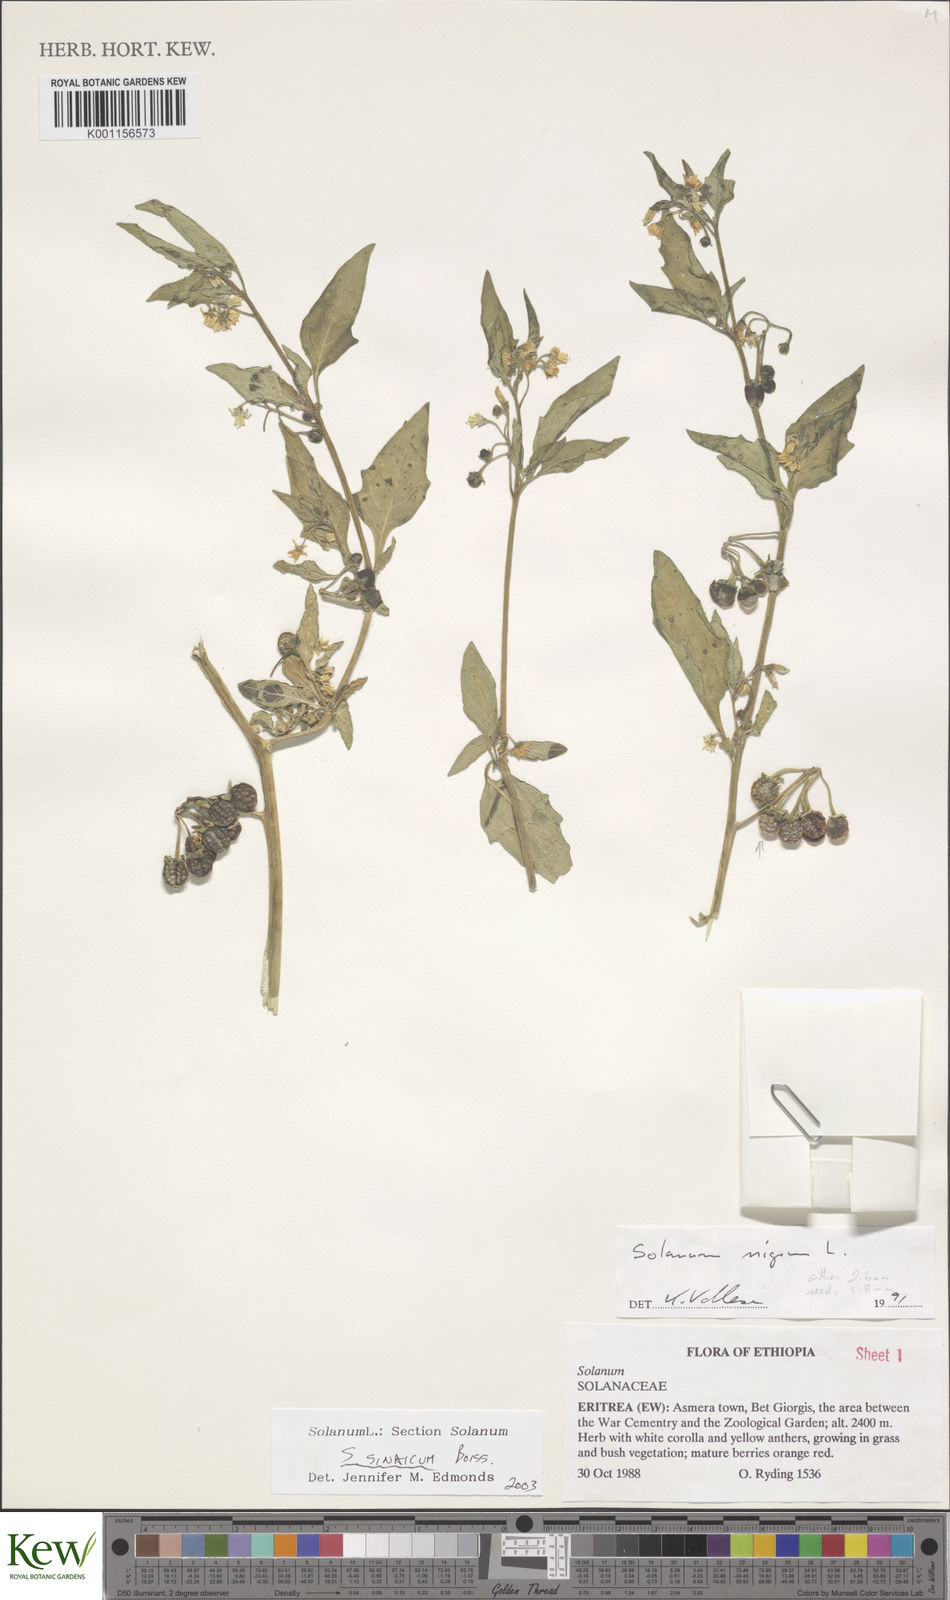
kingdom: Plantae
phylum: Tracheophyta
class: Magnoliopsida
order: Solanales
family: Solanaceae
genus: Solanum
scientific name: Solanum villosum
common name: Red nightshade
